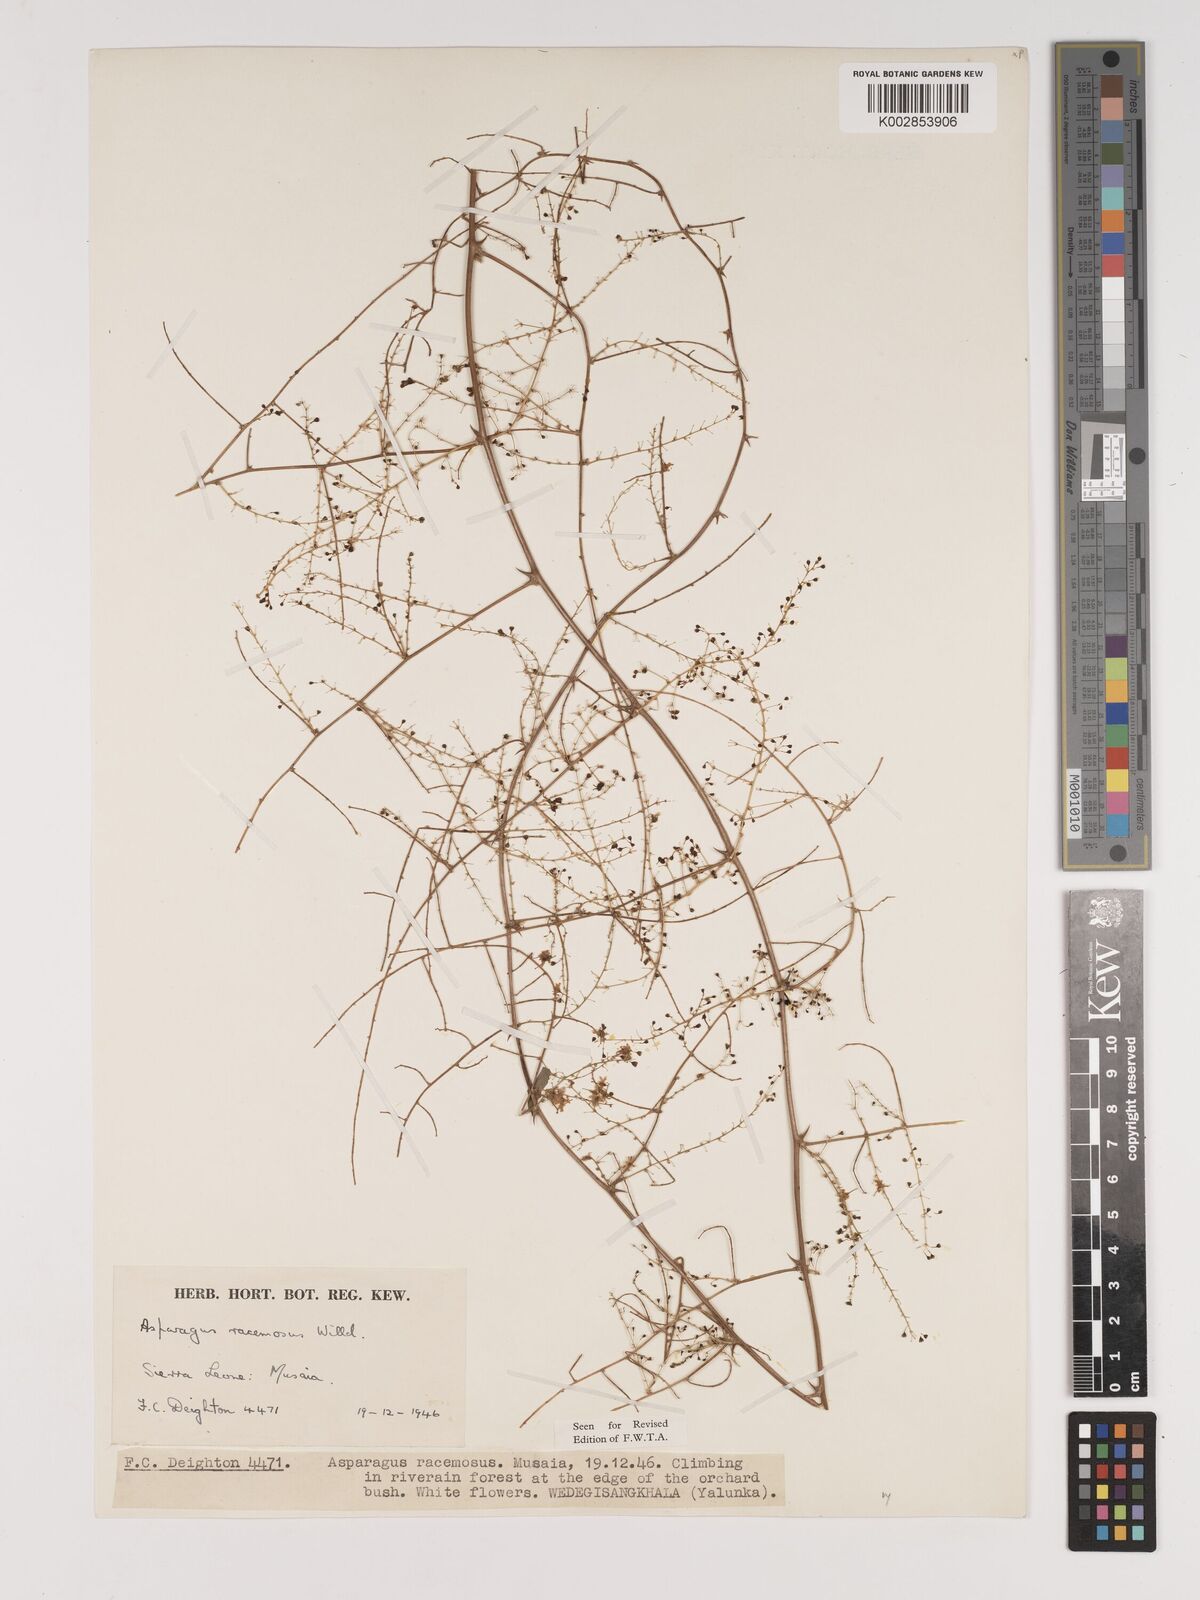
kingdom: Plantae
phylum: Tracheophyta
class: Liliopsida
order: Asparagales
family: Asparagaceae
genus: Asparagus
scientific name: Asparagus racemosus
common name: Asparagus-fern
